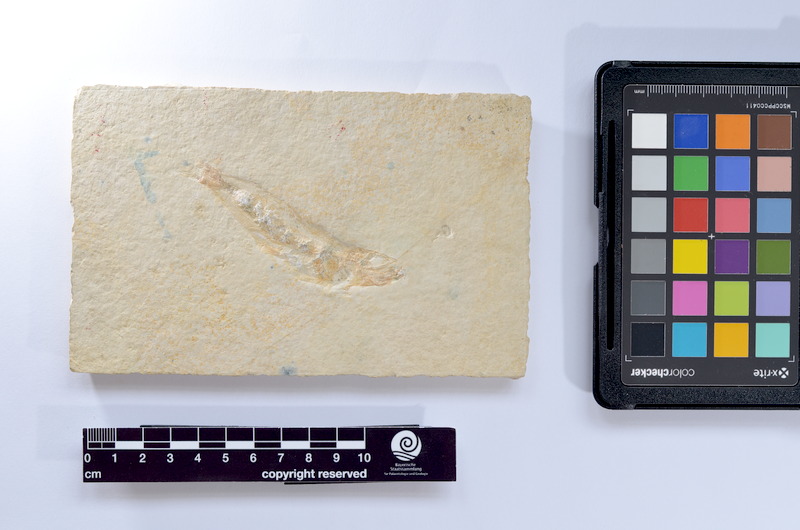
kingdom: Animalia
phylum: Chordata
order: Salmoniformes
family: Orthogonikleithridae
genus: Leptolepides
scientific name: Leptolepides sprattiformis
